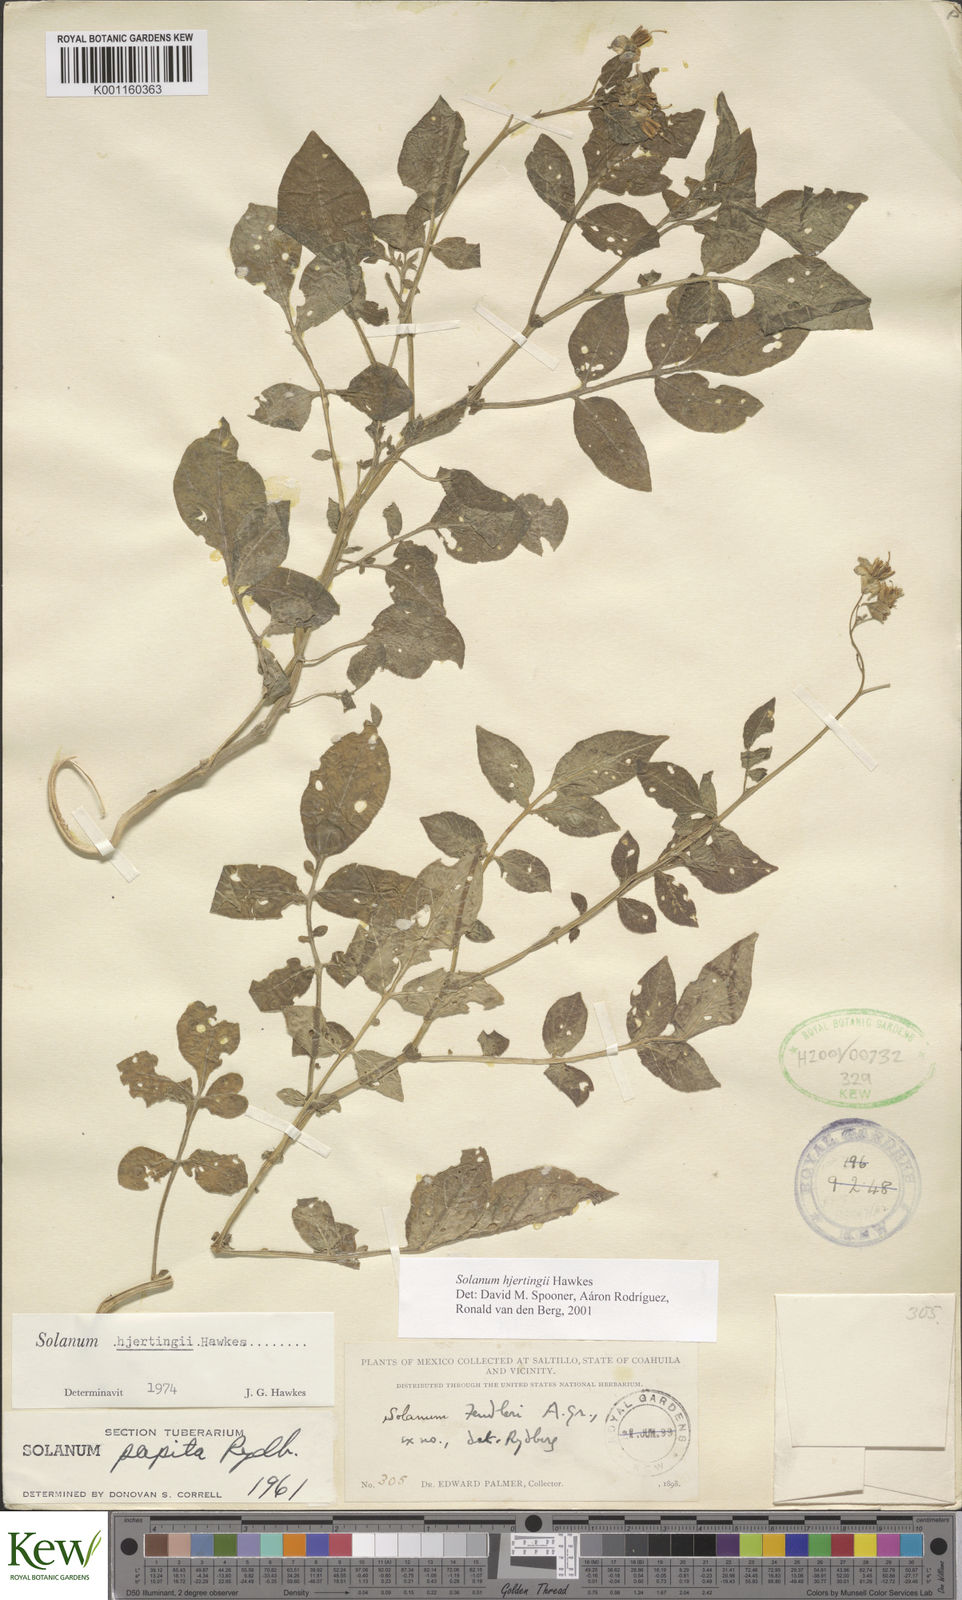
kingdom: Plantae
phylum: Tracheophyta
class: Magnoliopsida
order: Solanales
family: Solanaceae
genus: Solanum
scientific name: Solanum hjertingii
